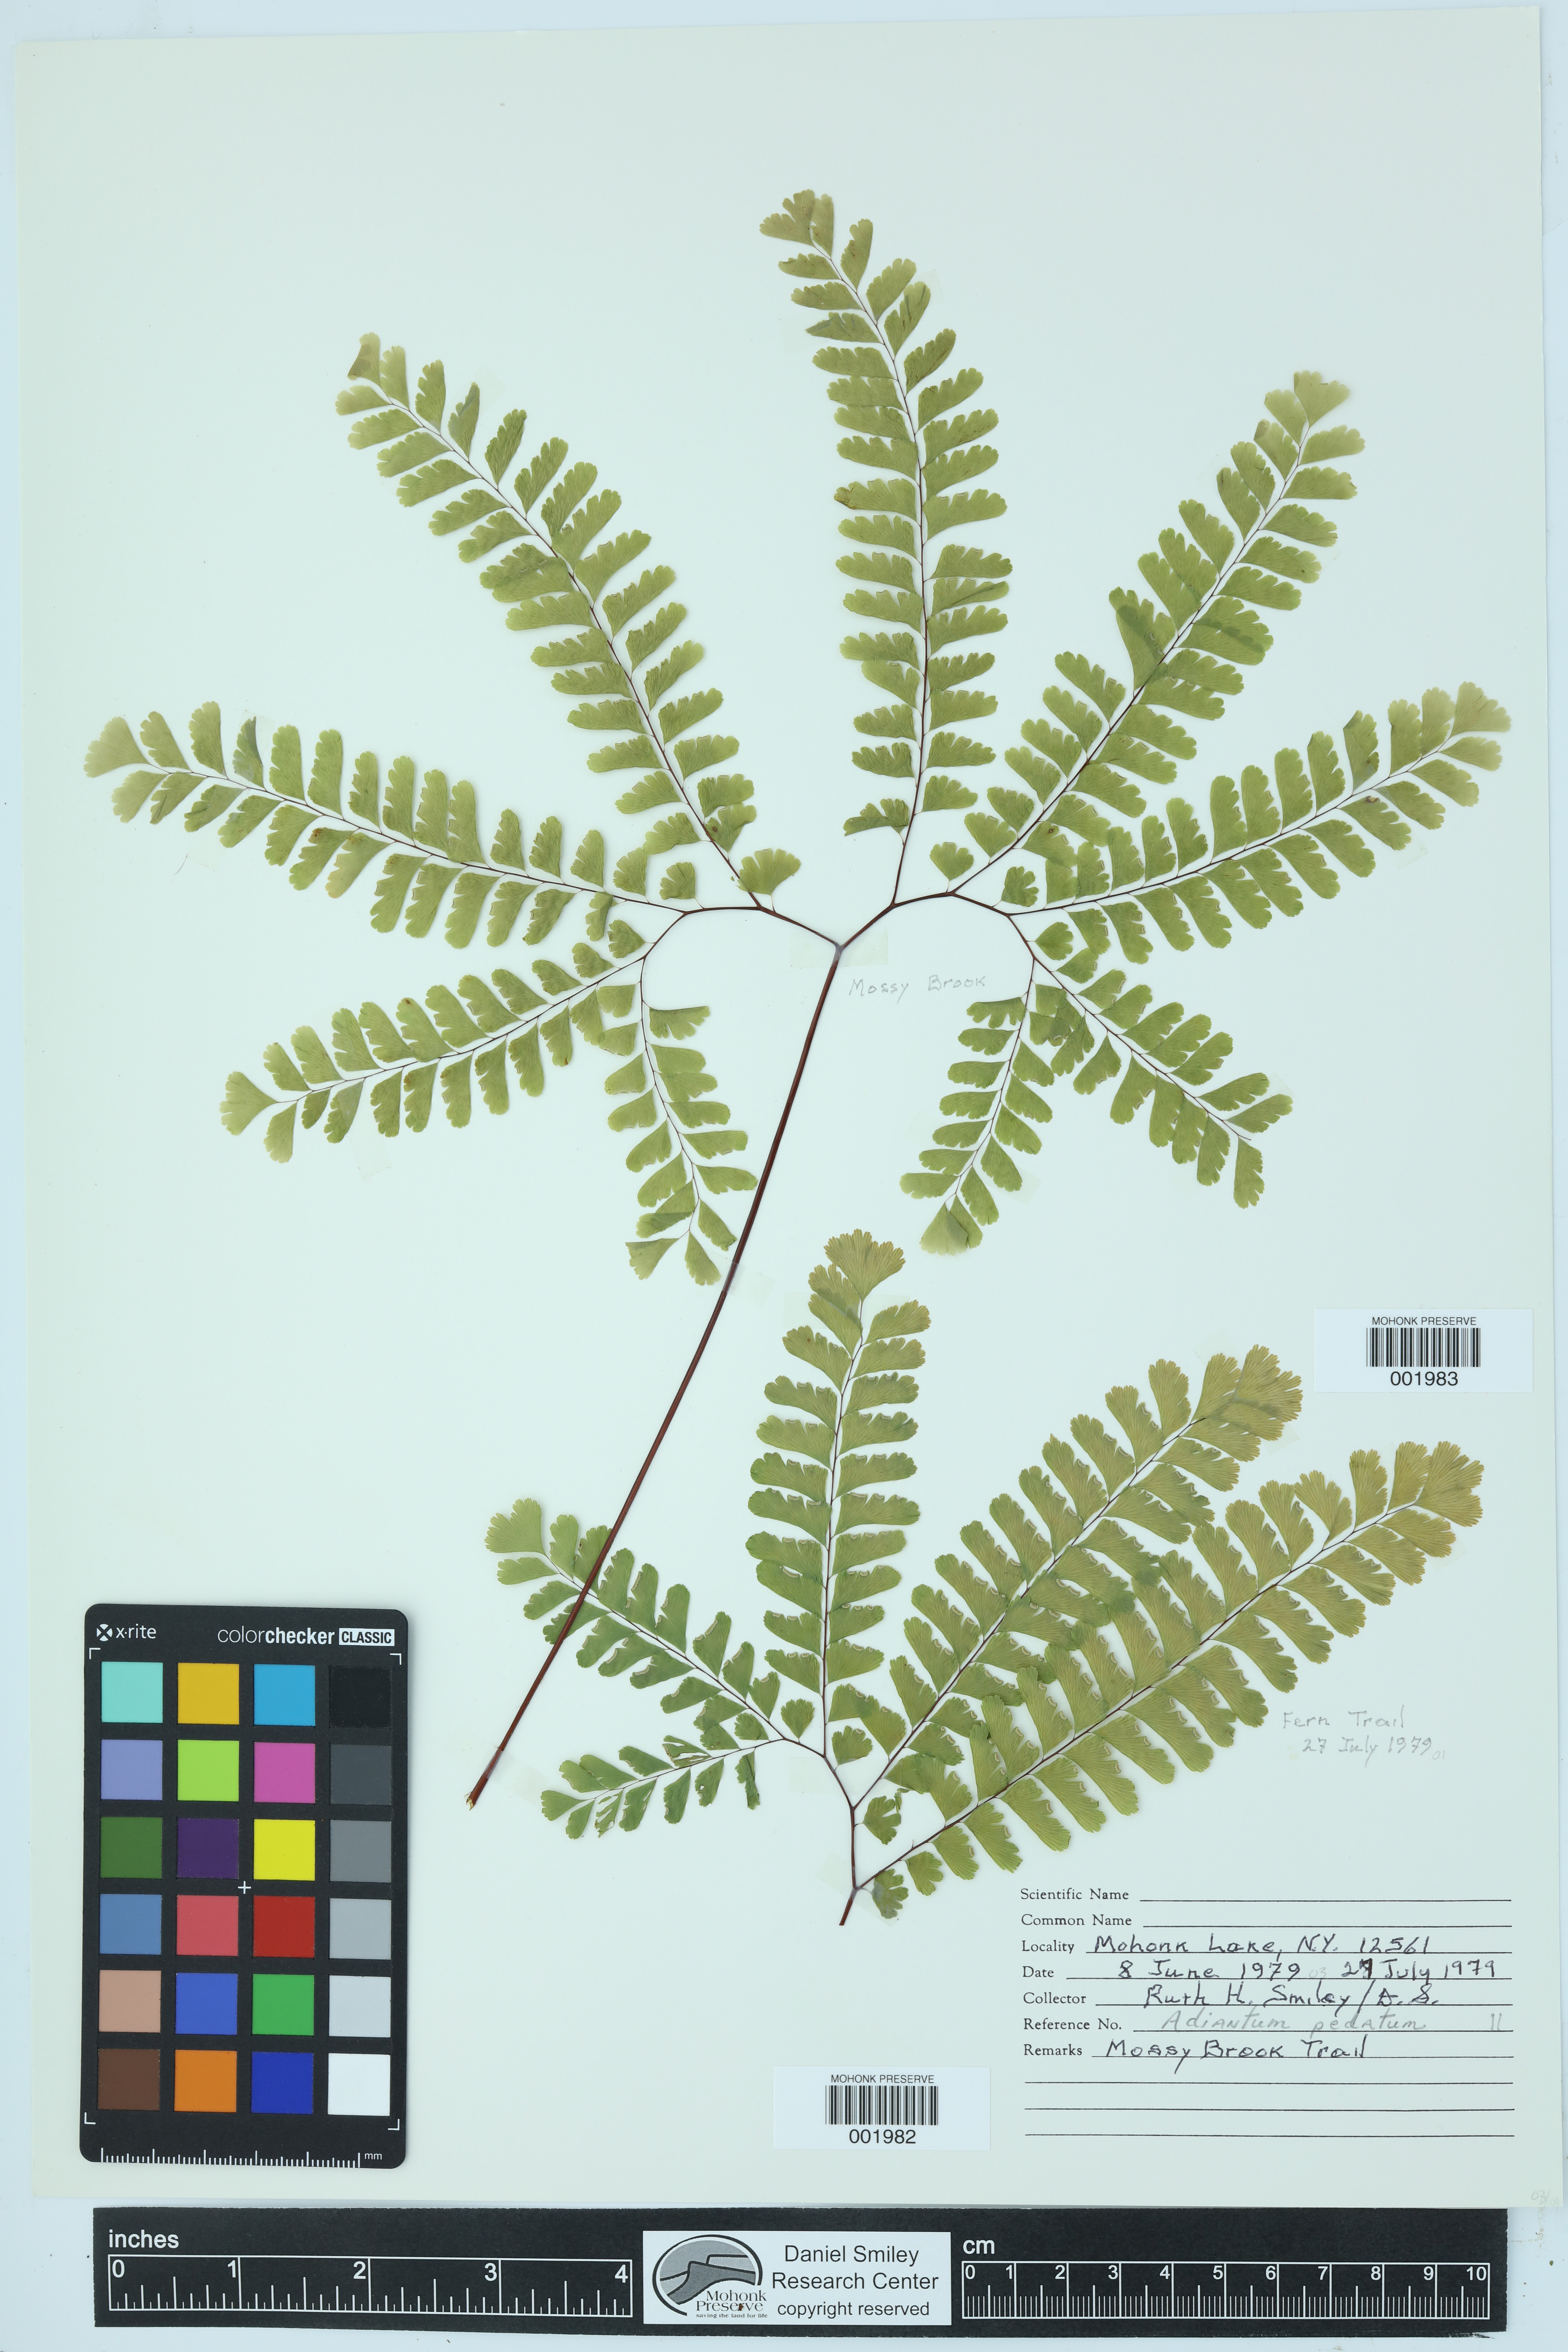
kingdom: Plantae
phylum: Tracheophyta
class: Polypodiopsida
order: Polypodiales
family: Pteridaceae
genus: Adiantum
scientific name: Adiantum pedatum
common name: Five-finger fern
